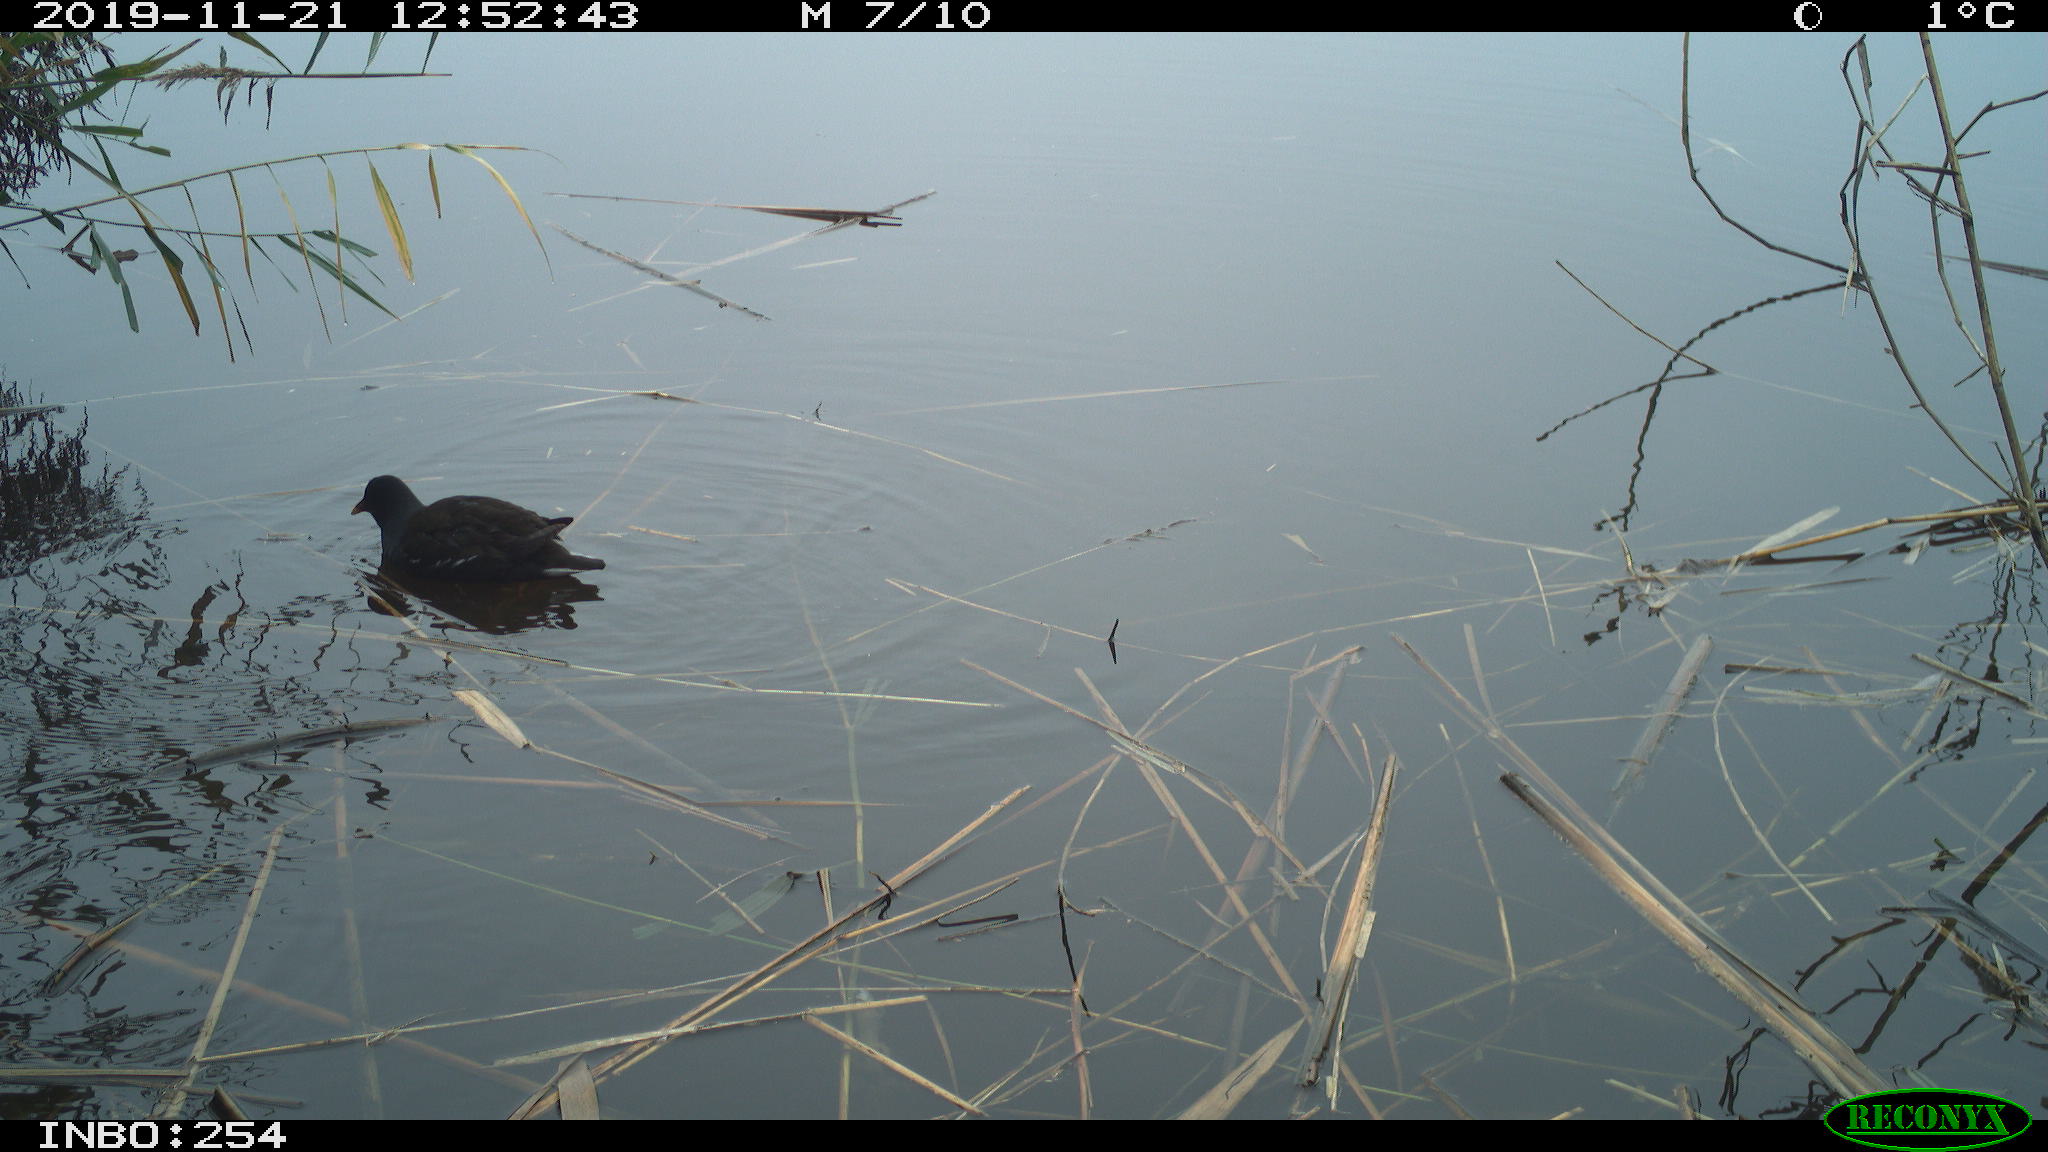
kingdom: Animalia
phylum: Chordata
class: Aves
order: Gruiformes
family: Rallidae
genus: Gallinula
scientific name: Gallinula chloropus
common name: Common moorhen
